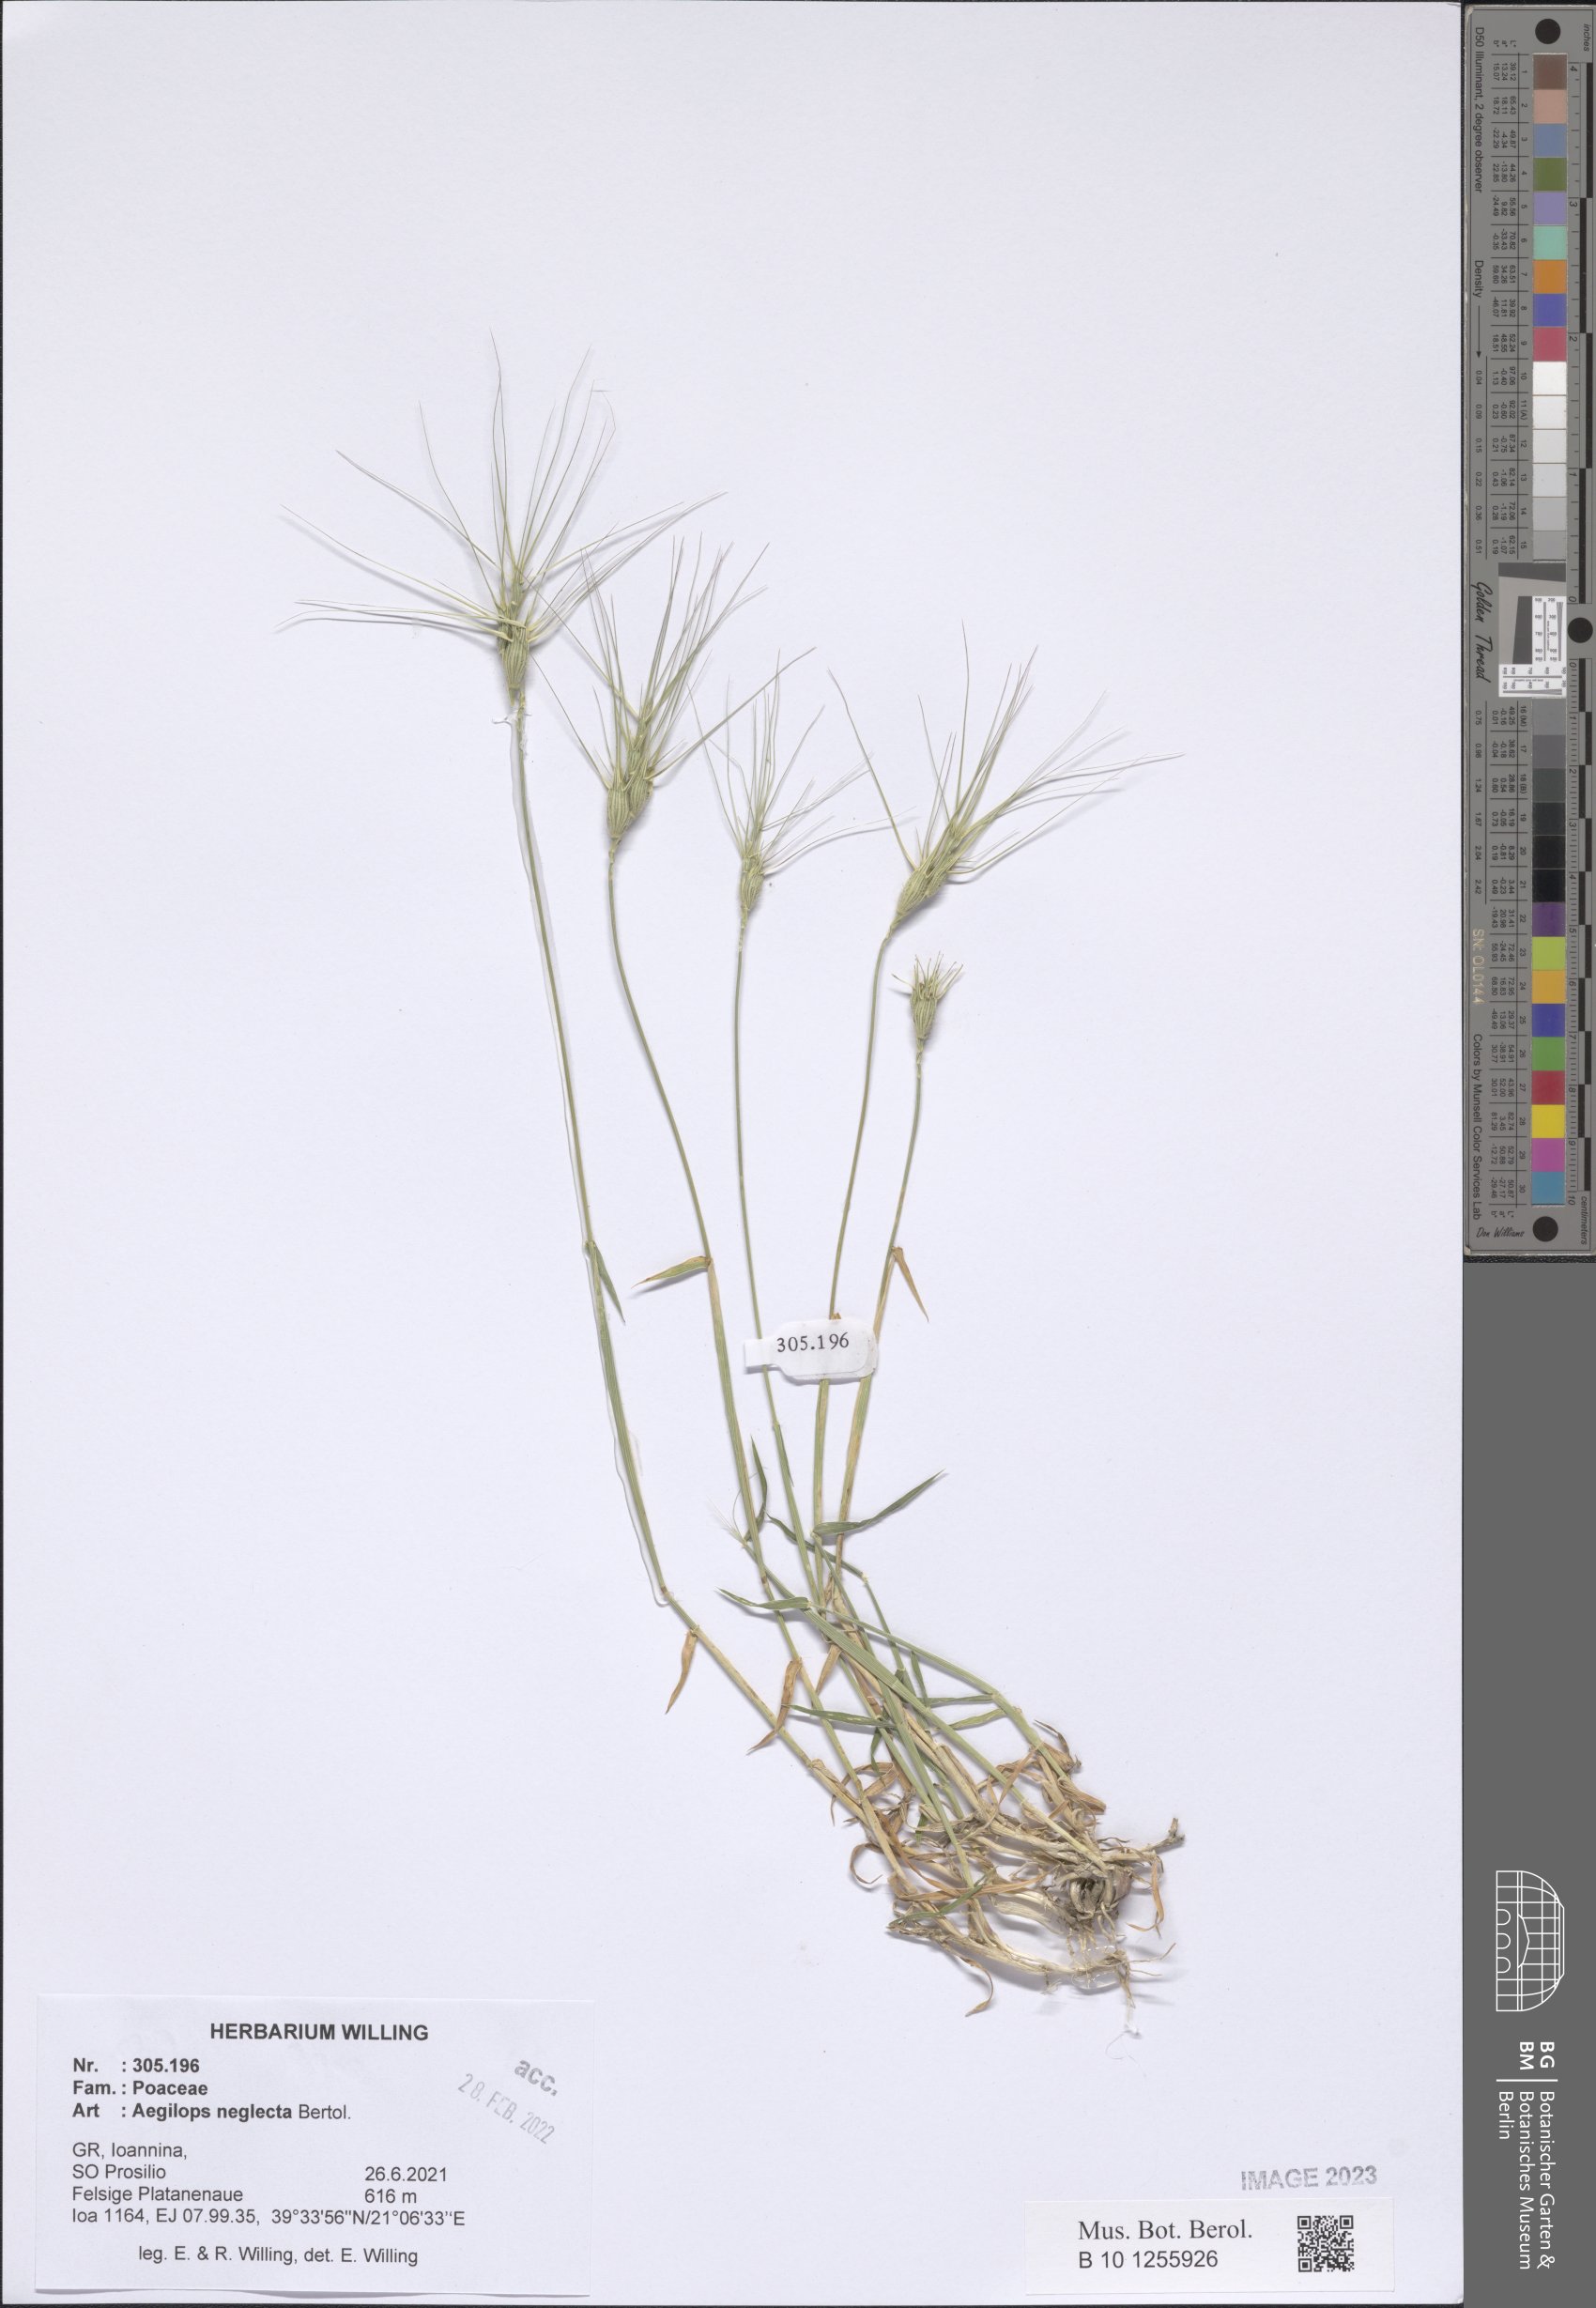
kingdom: Plantae
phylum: Tracheophyta
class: Liliopsida
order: Poales
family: Poaceae
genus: Aegilops
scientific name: Aegilops neglecta
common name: Three-awn goat grass
